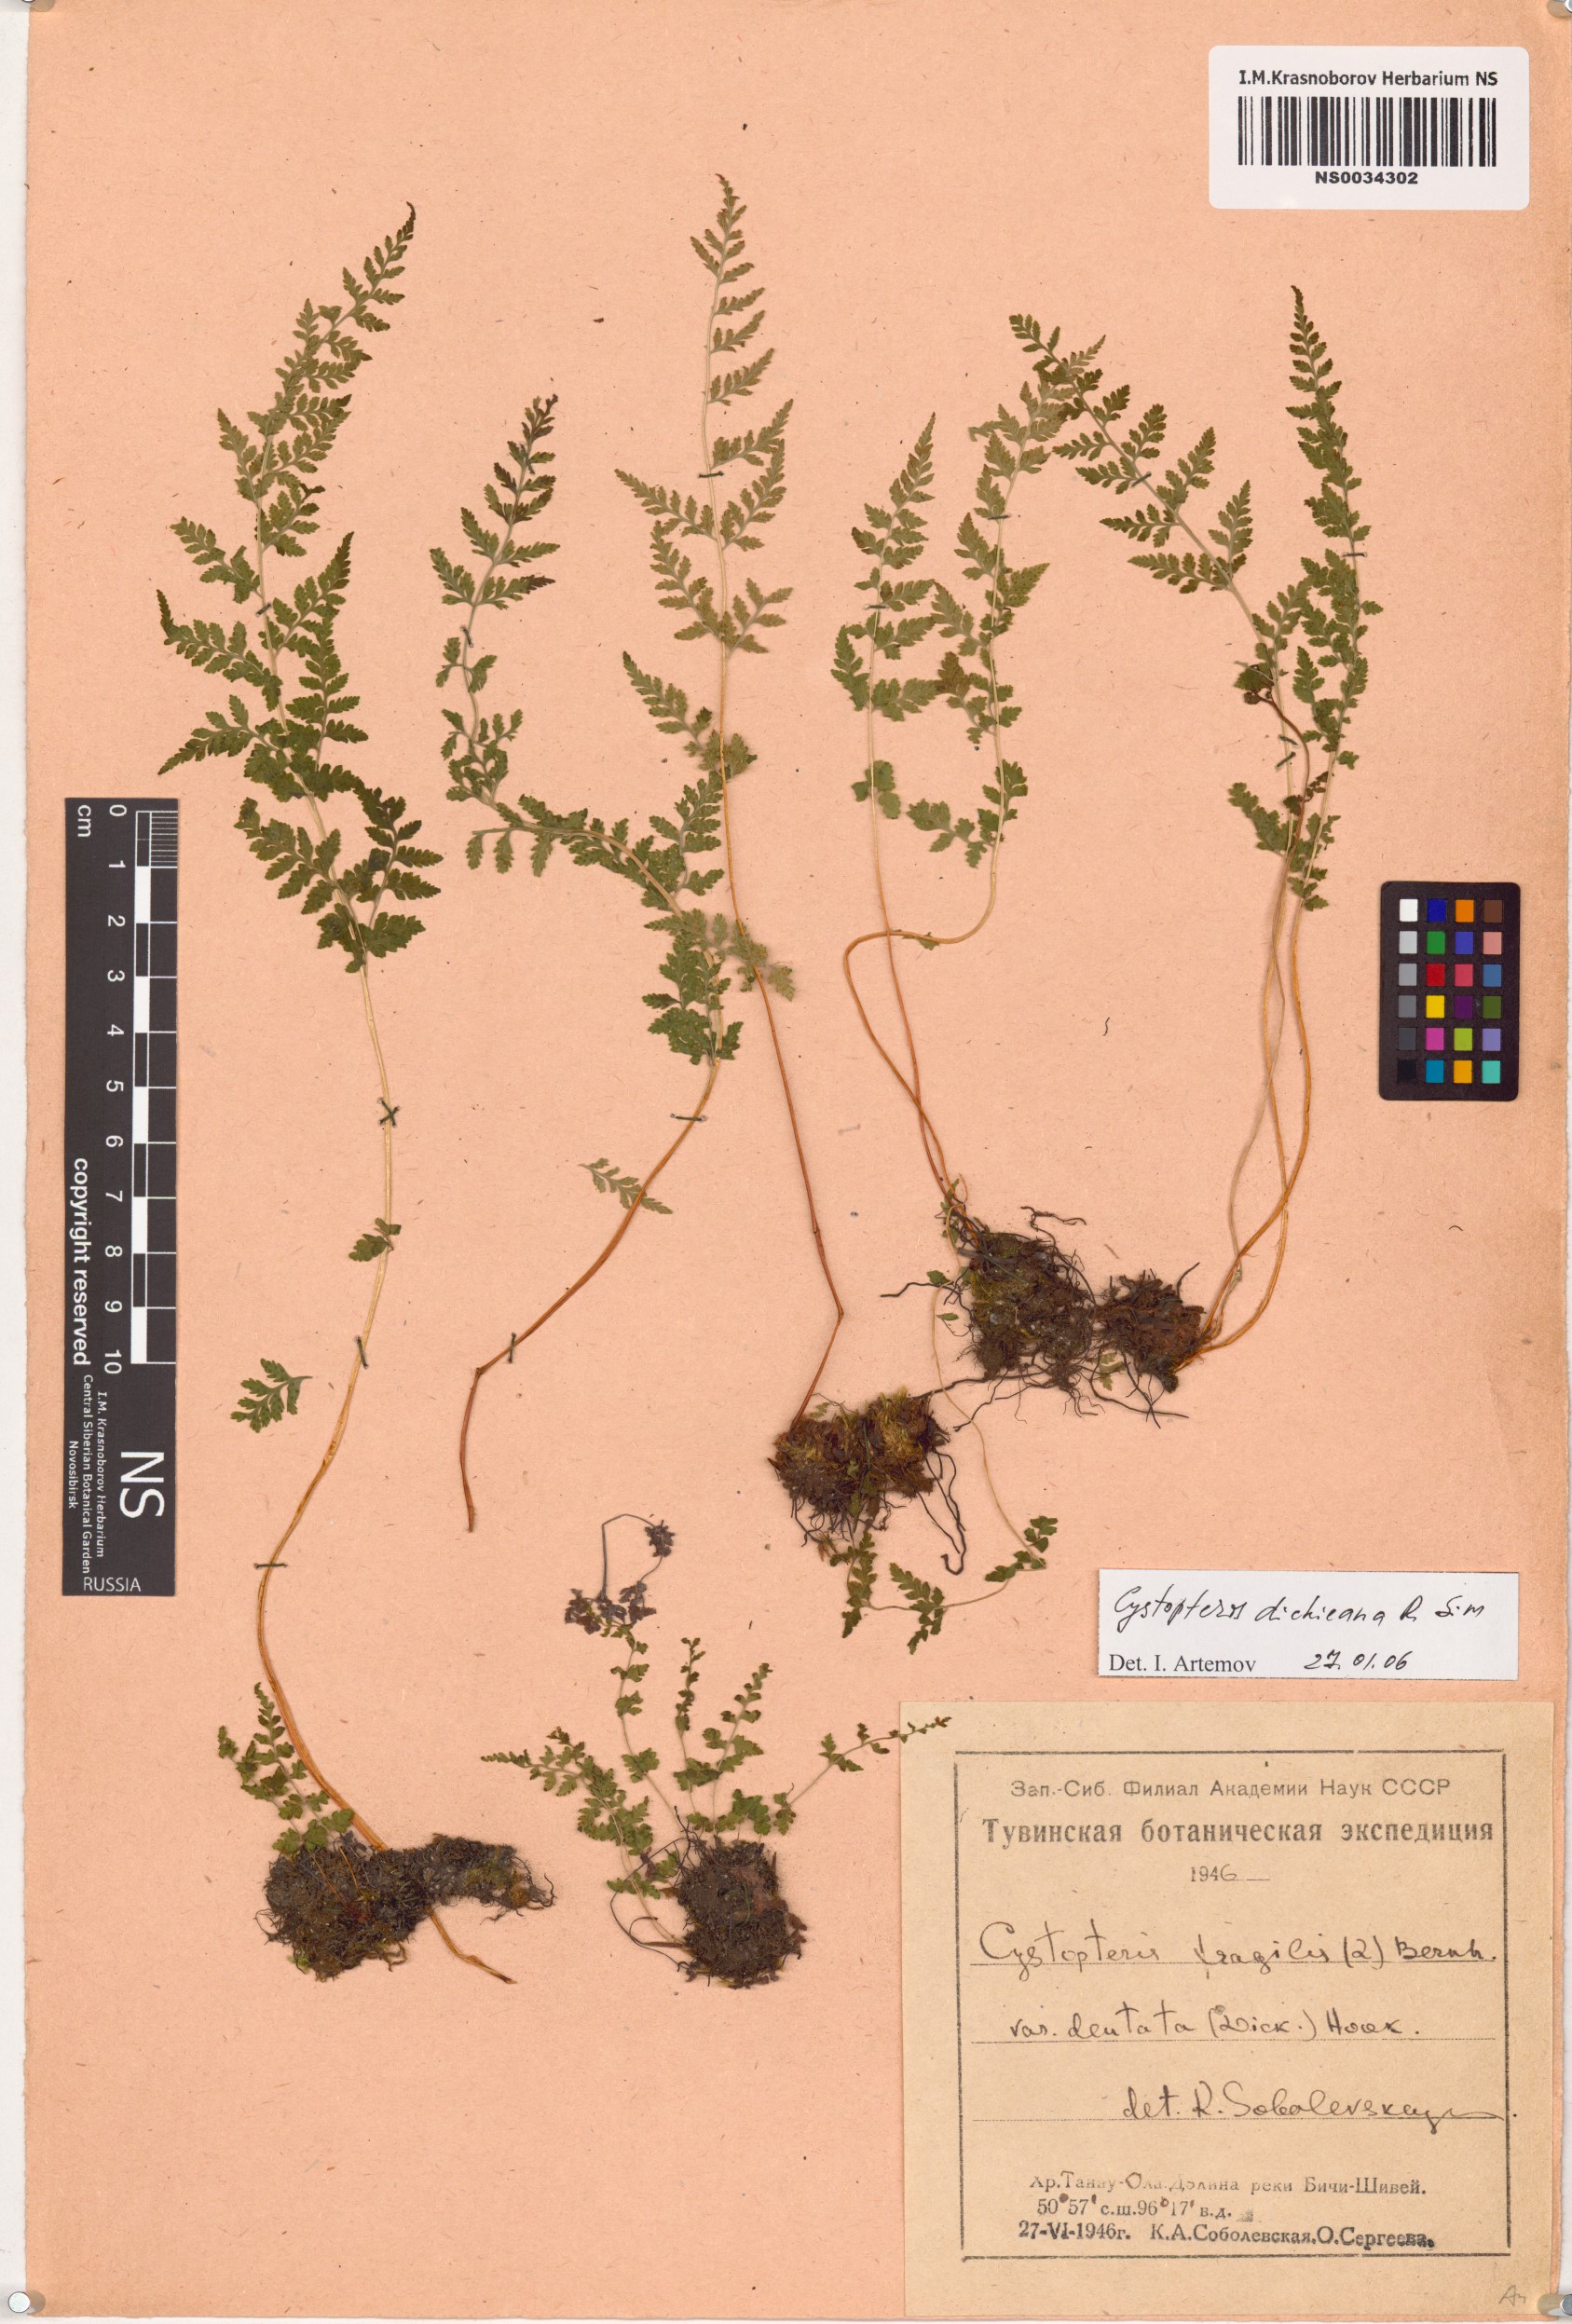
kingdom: Plantae
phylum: Tracheophyta
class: Polypodiopsida
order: Polypodiales
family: Cystopteridaceae
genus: Cystopteris
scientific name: Cystopteris dickieana
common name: Dickie's bladder-fern
